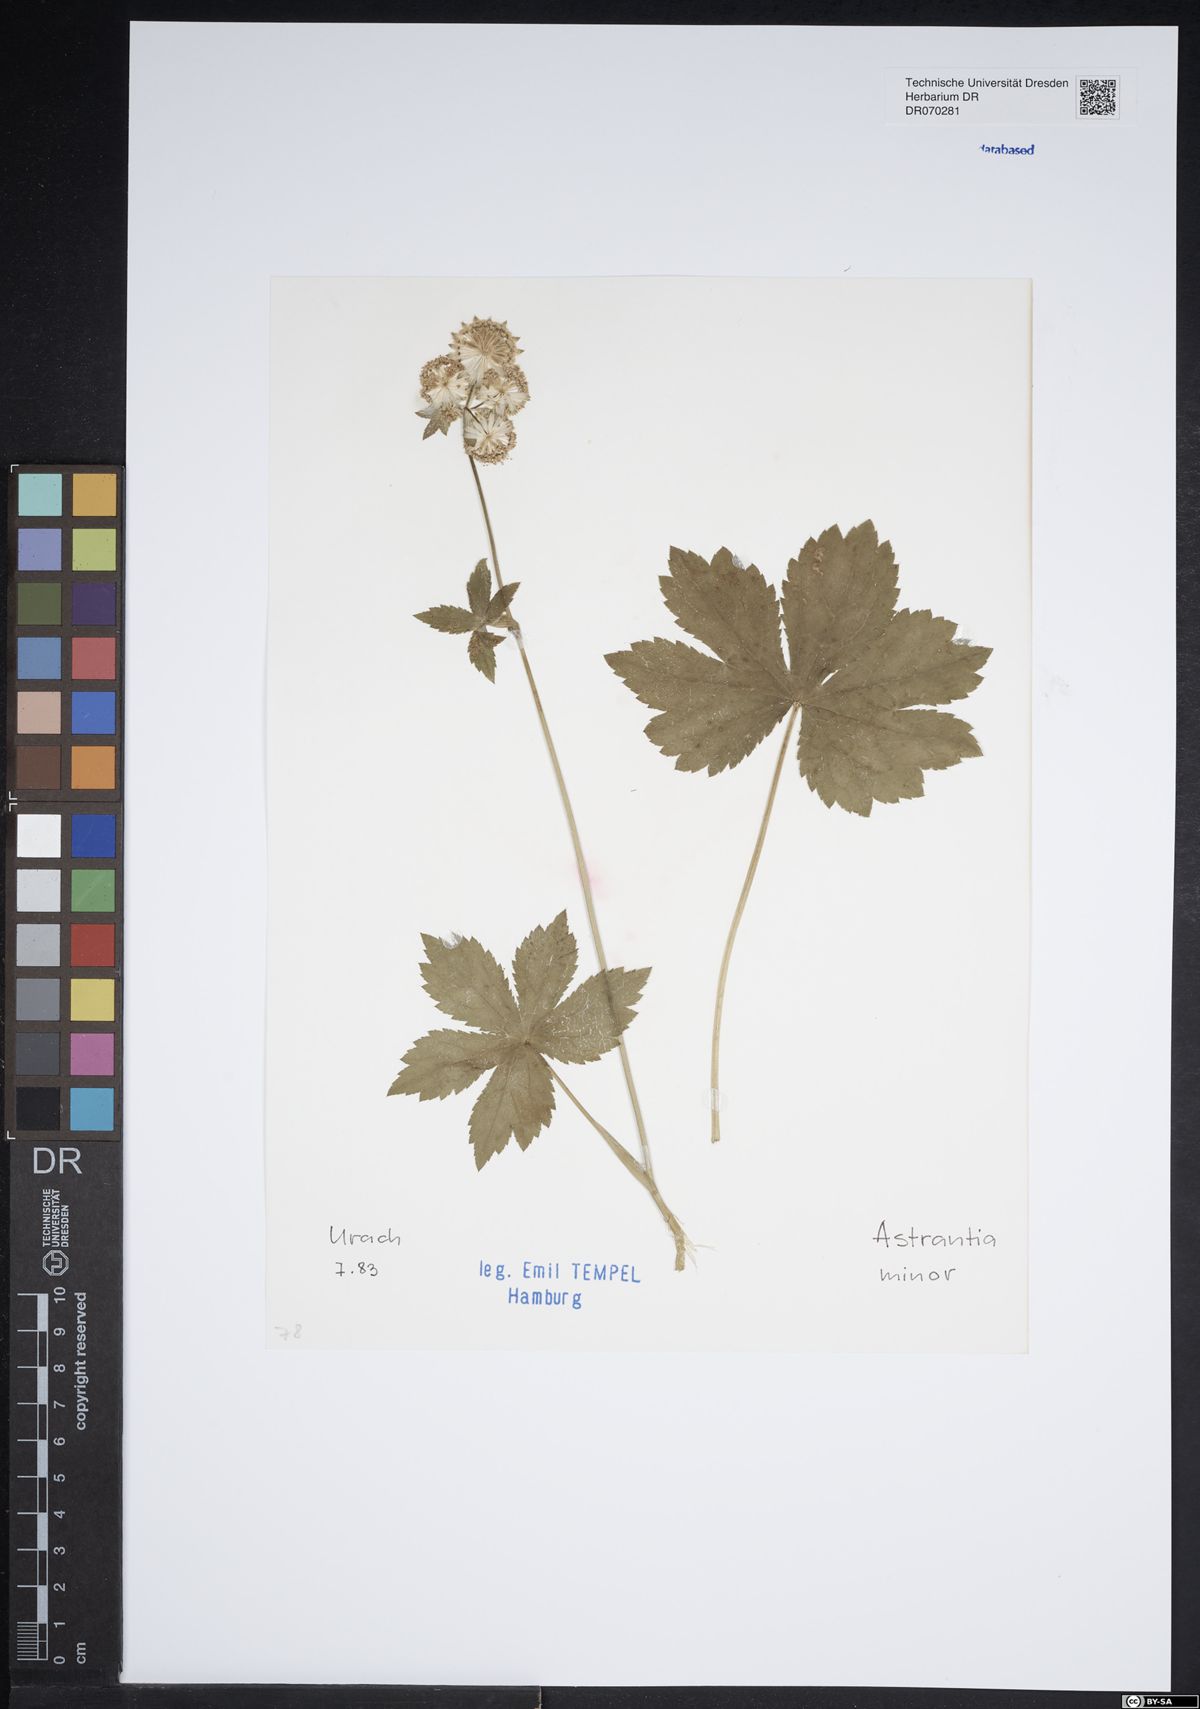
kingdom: Plantae
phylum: Tracheophyta
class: Magnoliopsida
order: Apiales
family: Apiaceae
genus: Astrantia
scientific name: Astrantia minor
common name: Lesser masterwort
